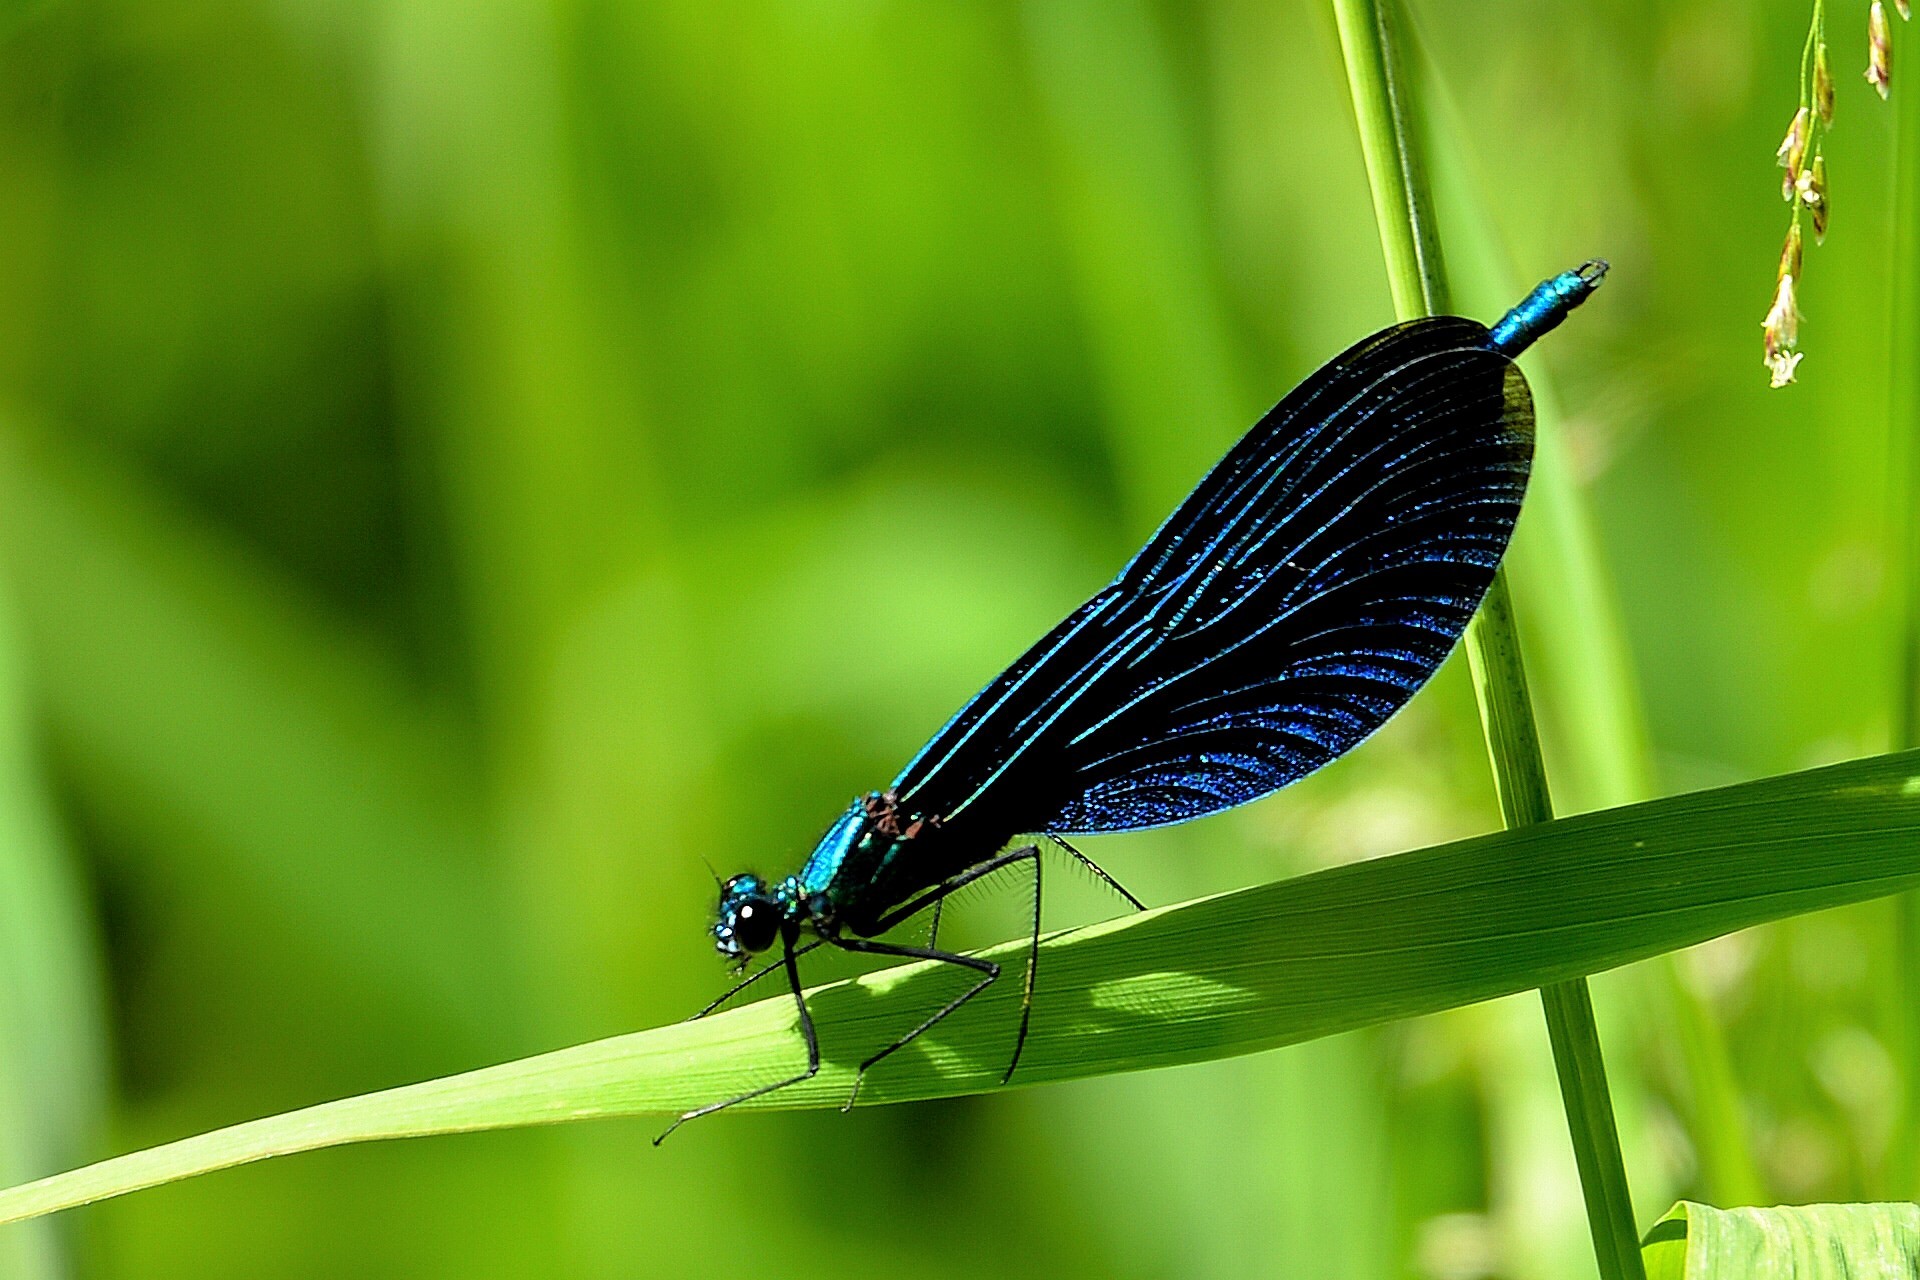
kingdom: Animalia
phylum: Arthropoda
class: Insecta
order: Odonata
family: Calopterygidae
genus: Calopteryx
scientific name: Calopteryx virgo
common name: Beautiful demoiselle
